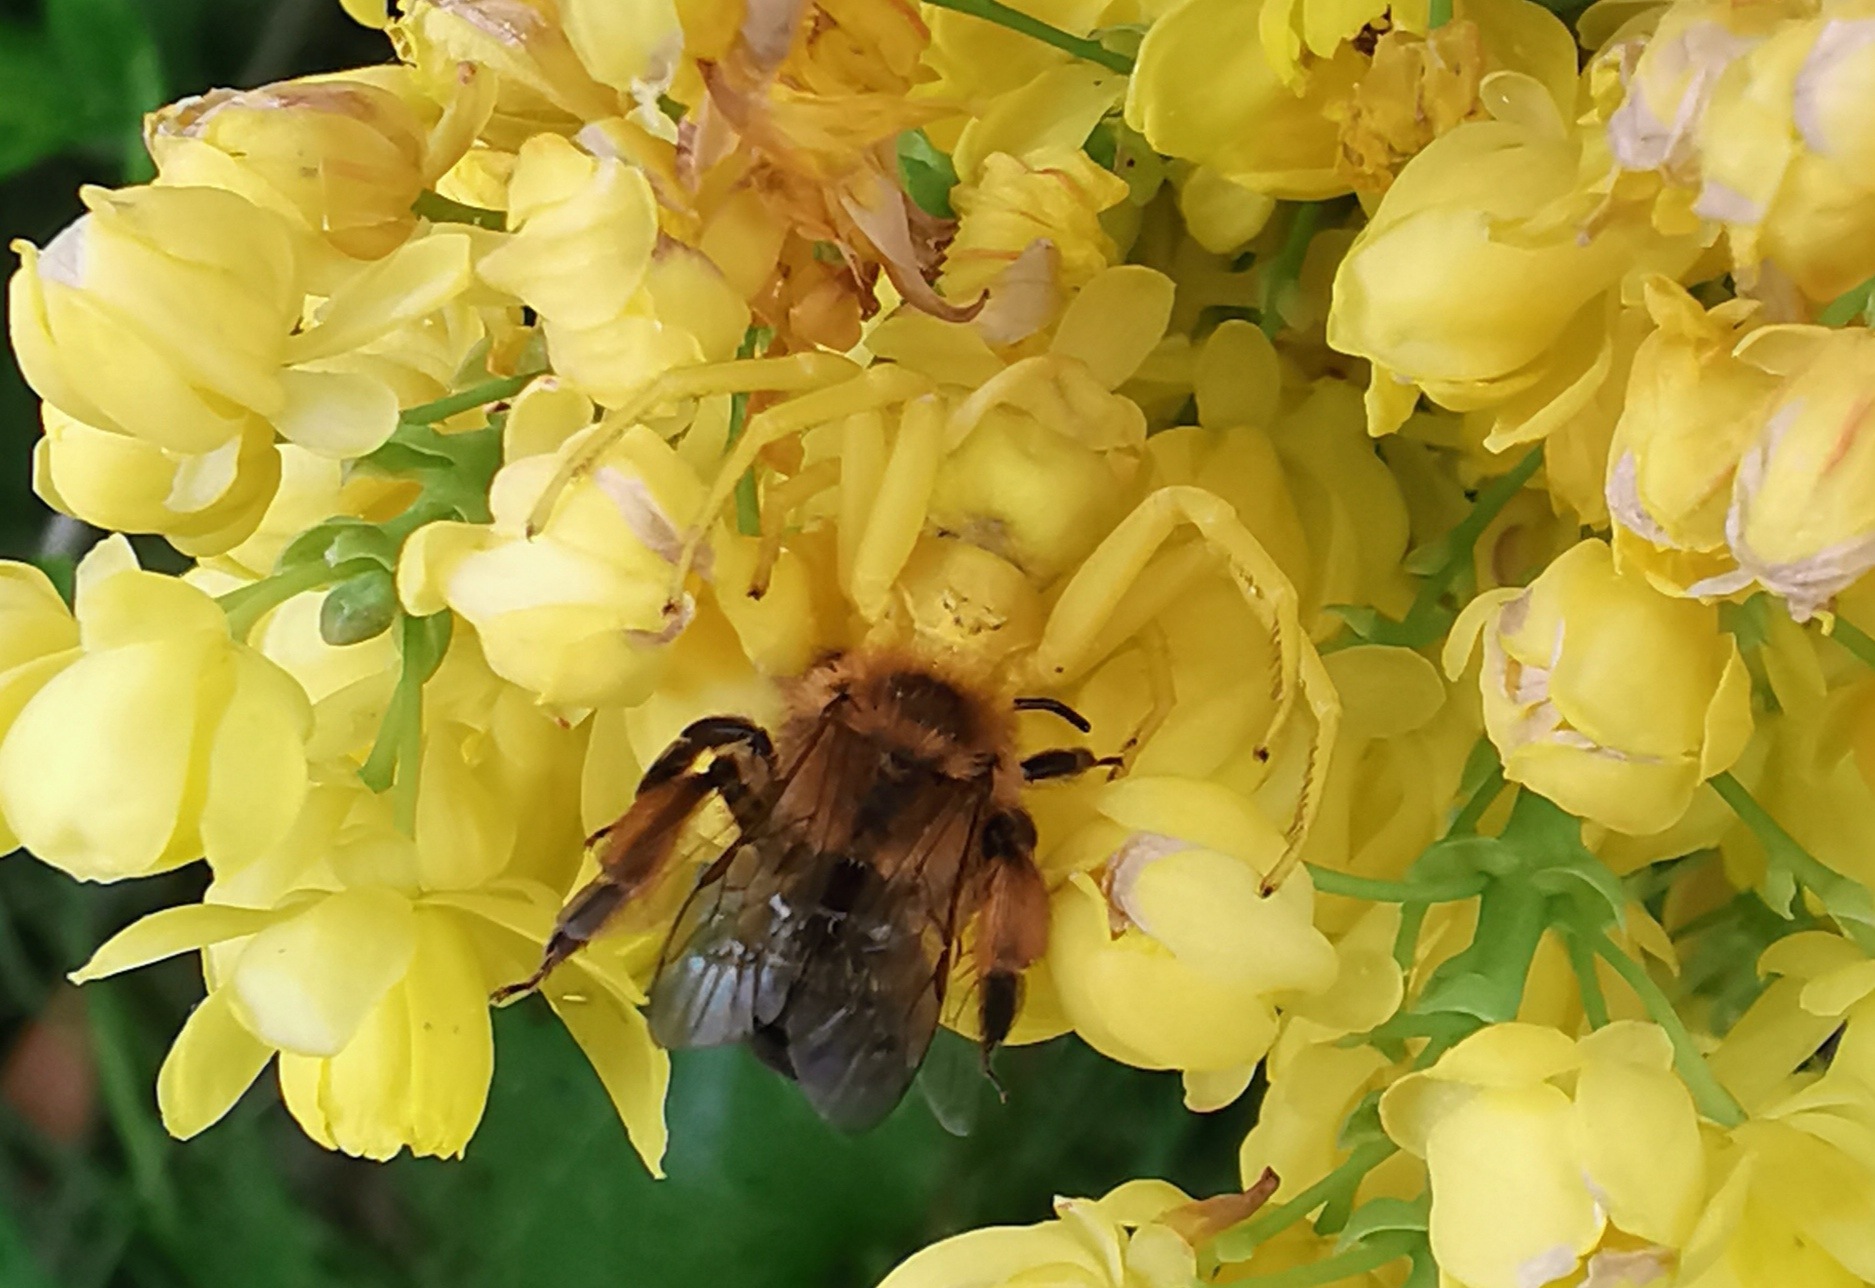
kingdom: Animalia
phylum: Arthropoda
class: Arachnida
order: Araneae
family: Thomisidae
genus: Misumena
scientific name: Misumena vatia
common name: Kamæleonedderkop
